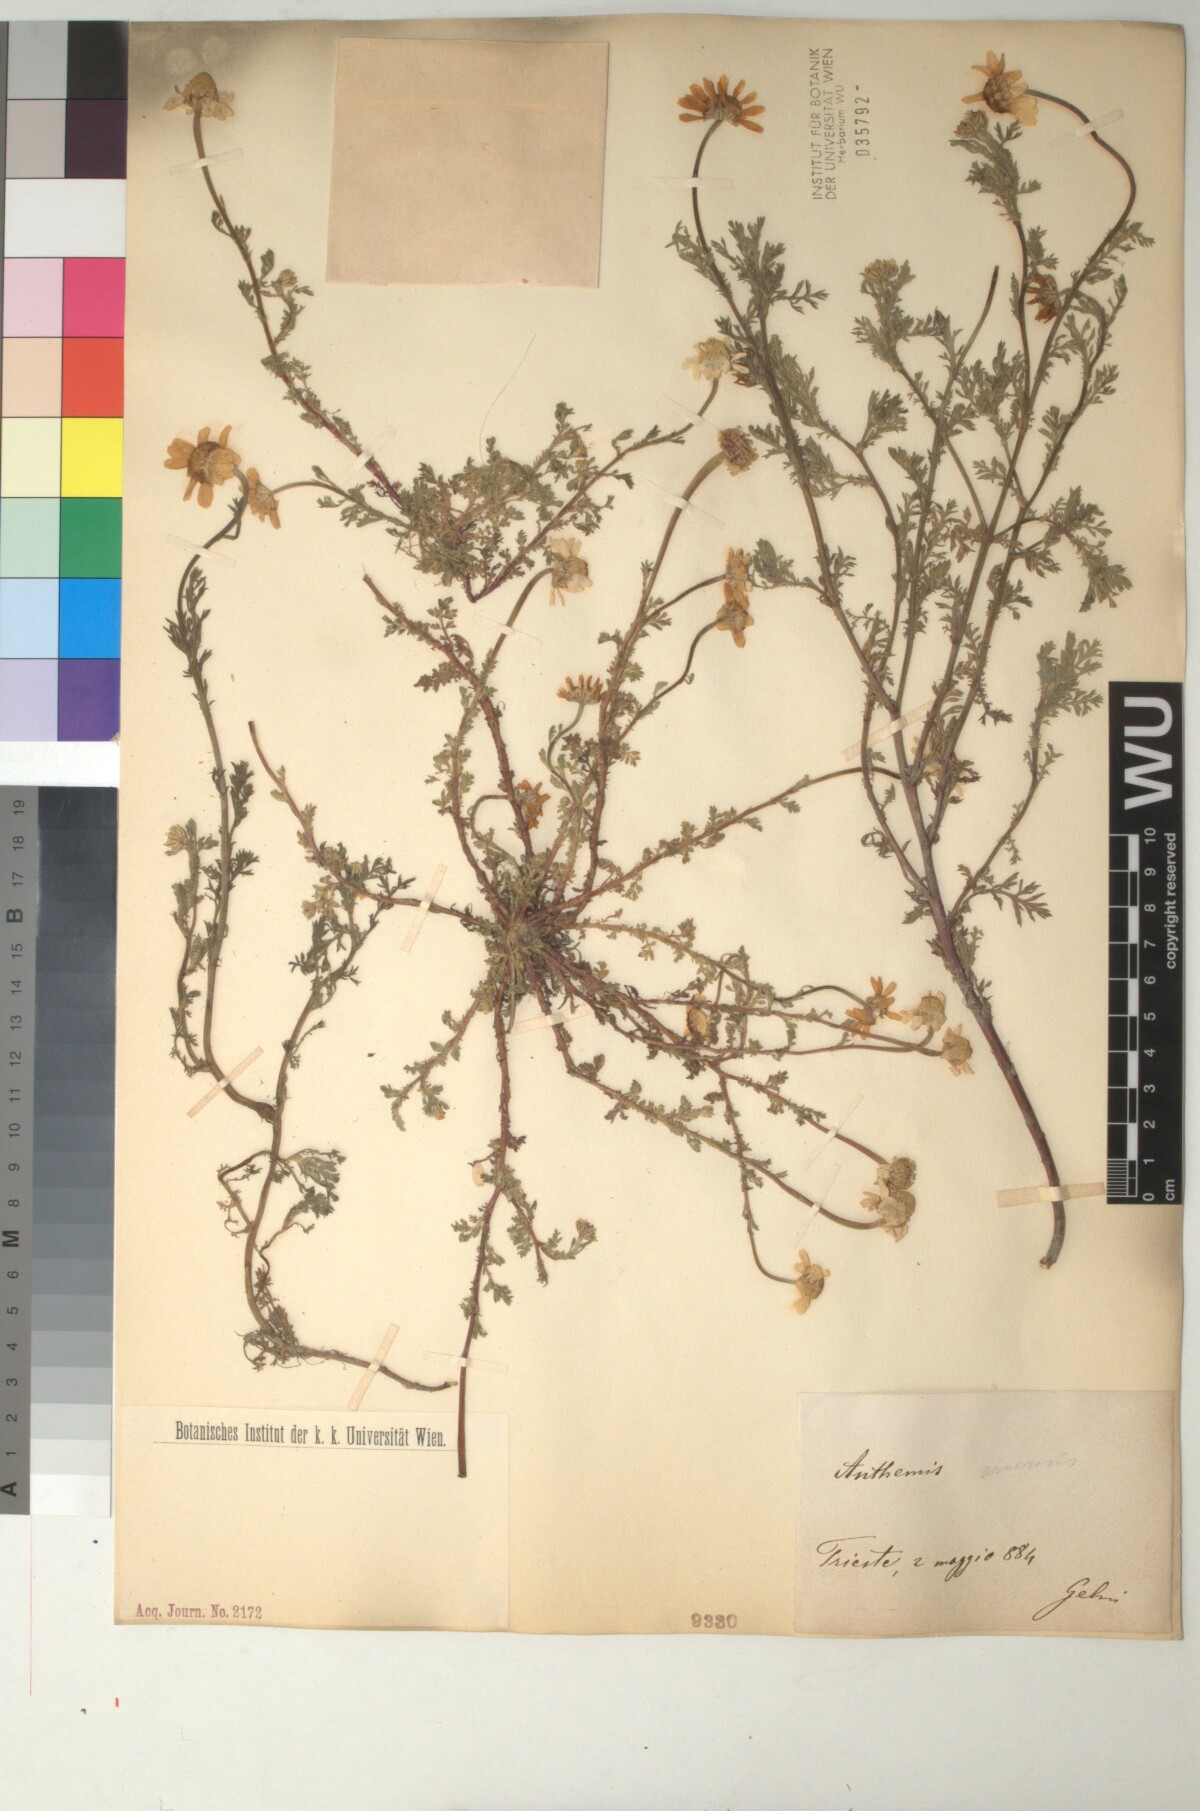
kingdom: Plantae
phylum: Tracheophyta
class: Magnoliopsida
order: Asterales
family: Asteraceae
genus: Anthemis
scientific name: Anthemis arvensis
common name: Corn chamomile
